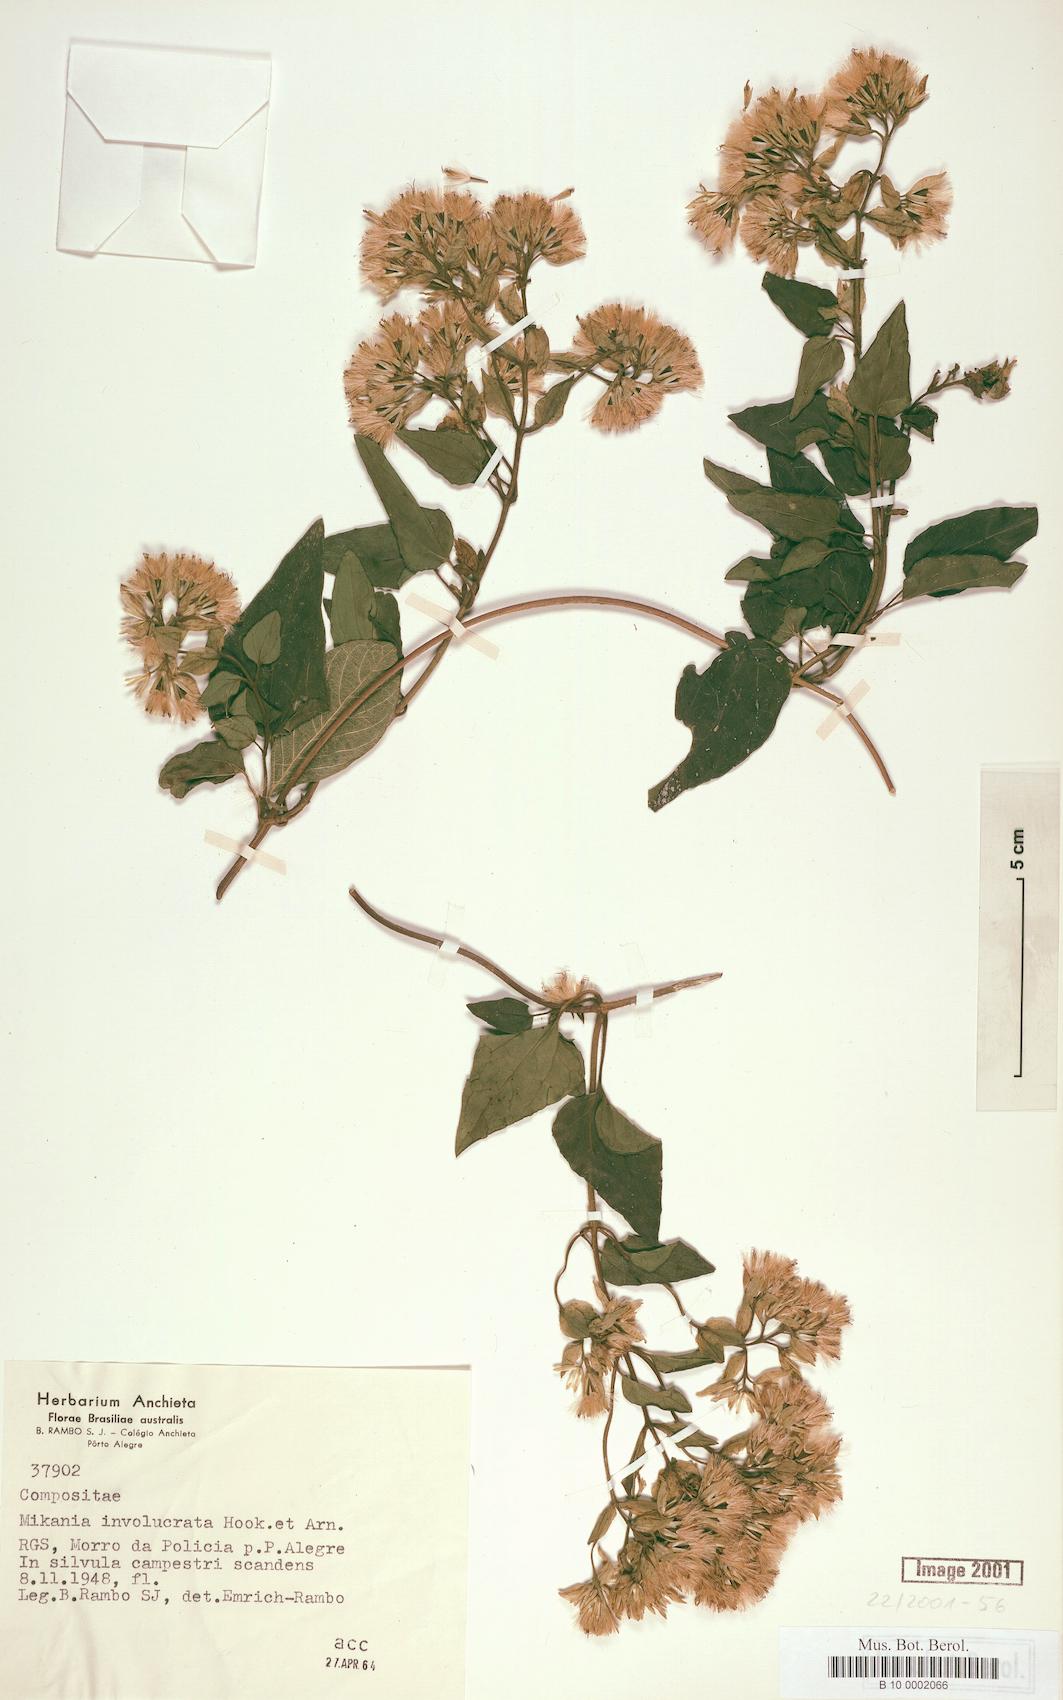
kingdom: Plantae
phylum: Tracheophyta
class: Magnoliopsida
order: Asterales
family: Asteraceae
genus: Mikania
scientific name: Mikania involucrata
